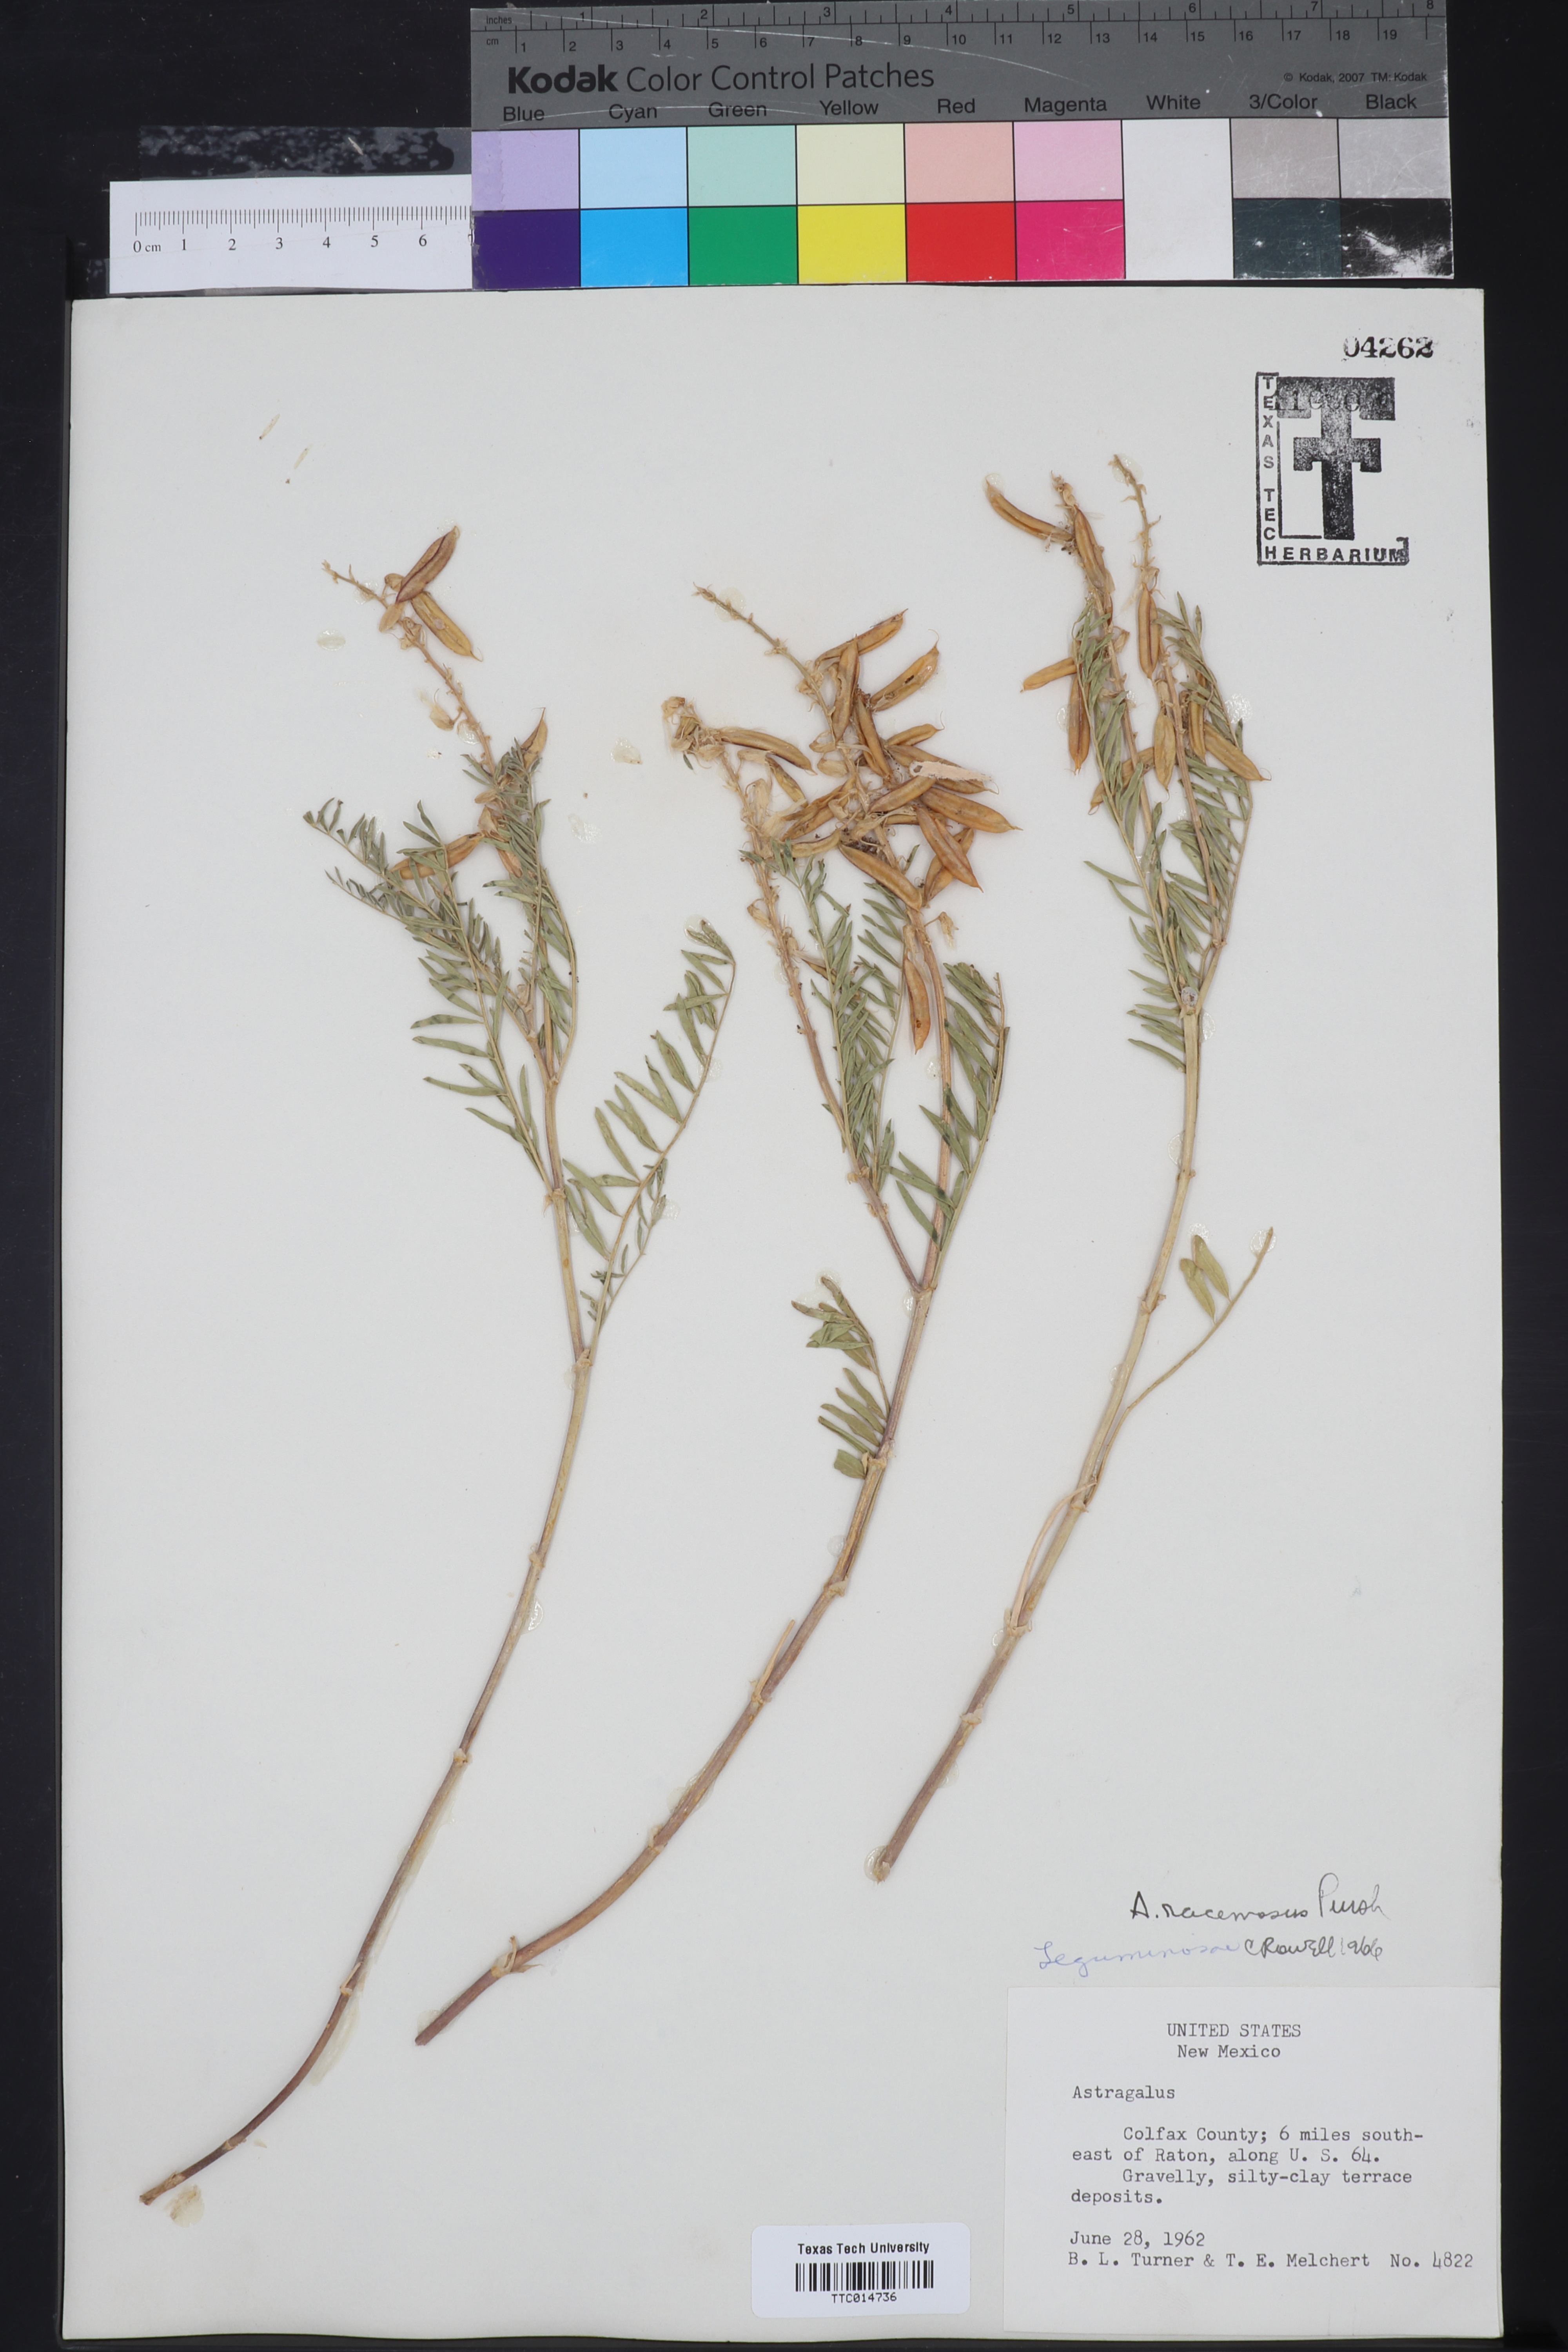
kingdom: Plantae
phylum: Tracheophyta
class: Magnoliopsida
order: Fabales
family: Fabaceae
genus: Astragalus
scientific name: Astragalus racemosus
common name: Alkali milk-vetch
